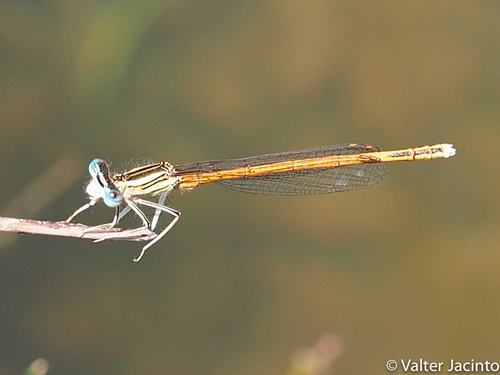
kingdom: Animalia
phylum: Arthropoda
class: Insecta
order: Odonata
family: Platycnemididae
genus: Platycnemis
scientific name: Platycnemis acutipennis
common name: Orange featherleg
